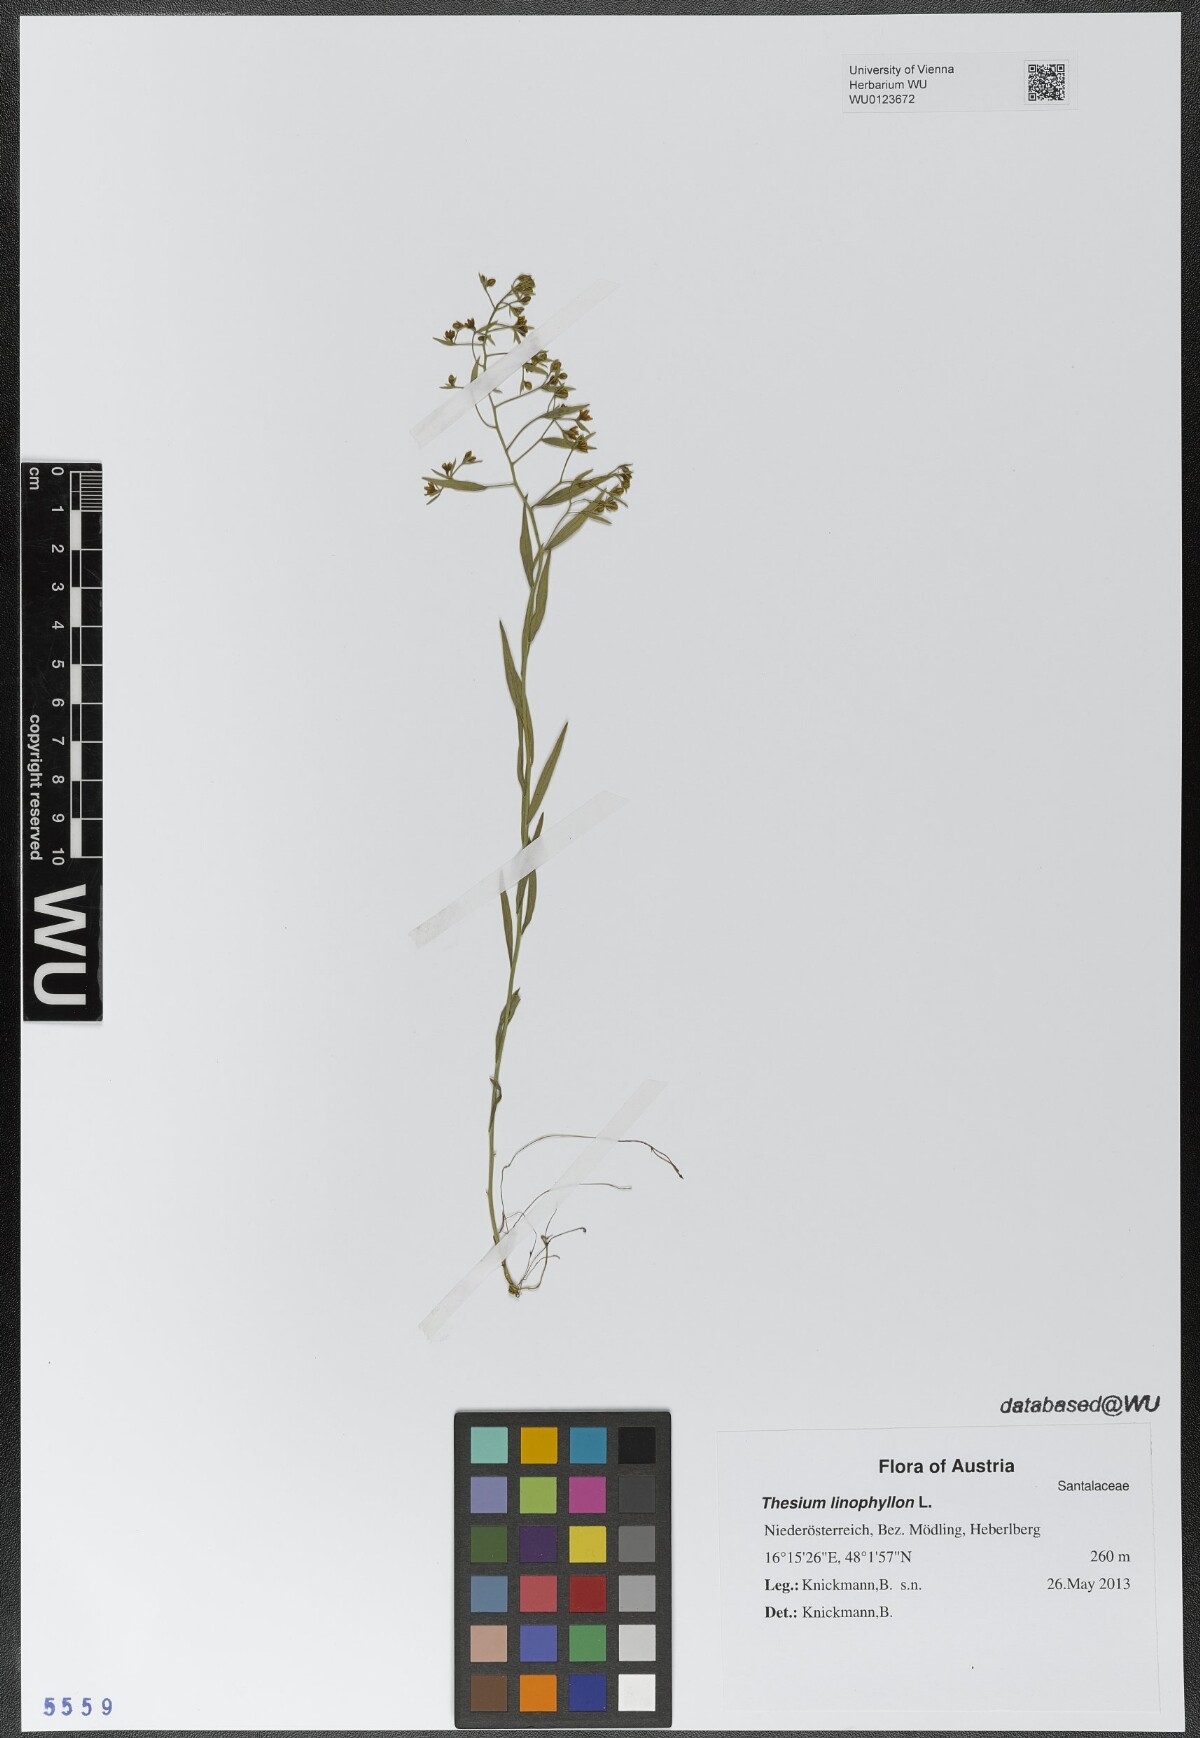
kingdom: Plantae
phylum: Tracheophyta
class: Magnoliopsida
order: Santalales
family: Thesiaceae
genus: Thesium
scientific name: Thesium linophyllon
